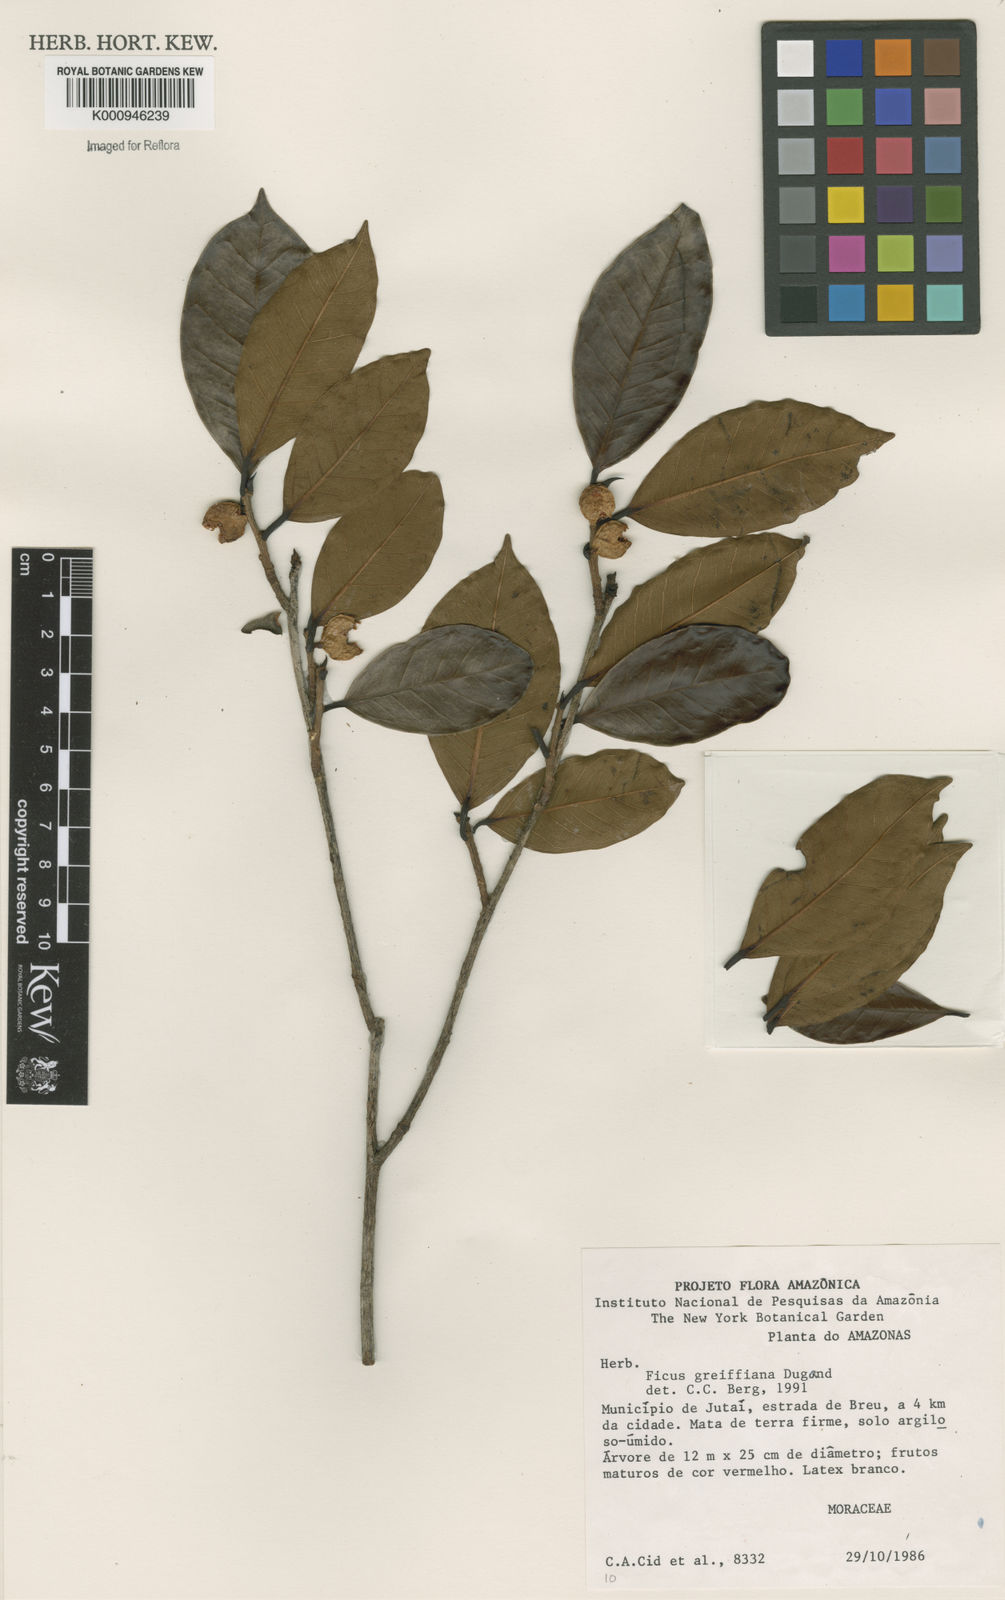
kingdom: Plantae
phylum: Tracheophyta
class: Magnoliopsida
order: Rosales
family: Moraceae
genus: Ficus
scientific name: Ficus americana
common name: Jamaican cherry fig
